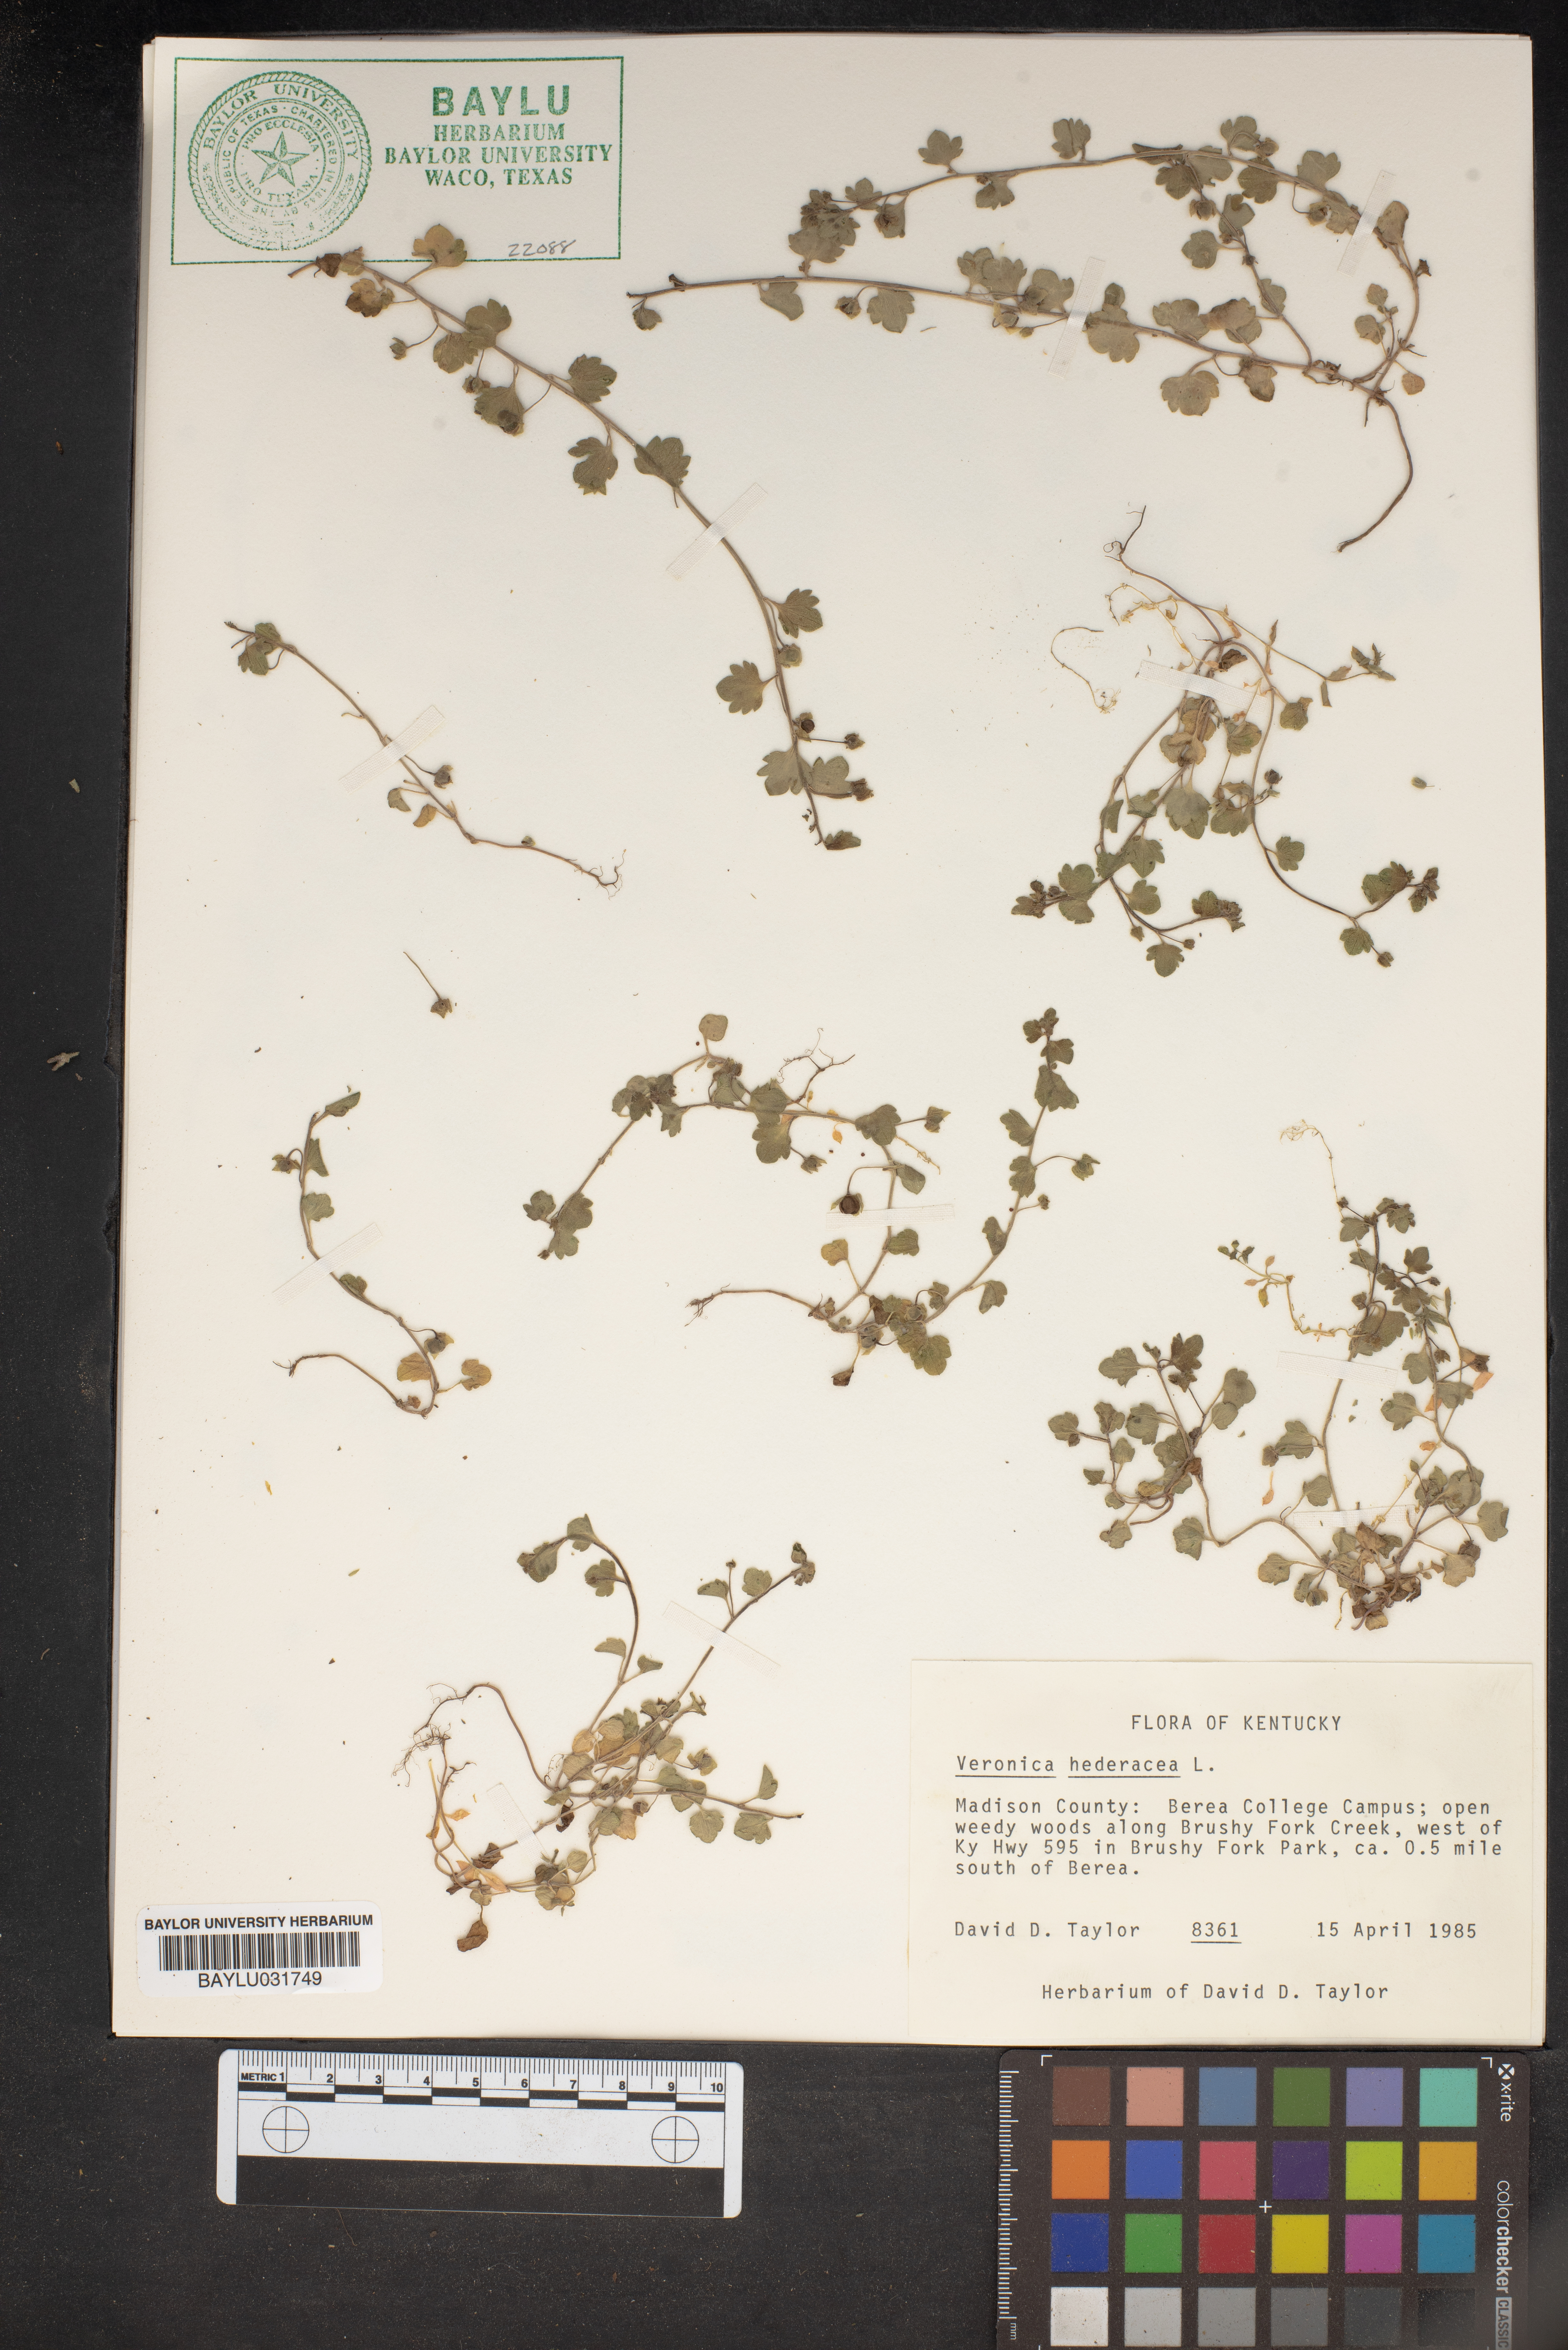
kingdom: Plantae
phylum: Tracheophyta
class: Magnoliopsida
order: Lamiales
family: Plantaginaceae
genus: Veronica
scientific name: Veronica hederifolia
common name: Ivy-leaved speedwell
